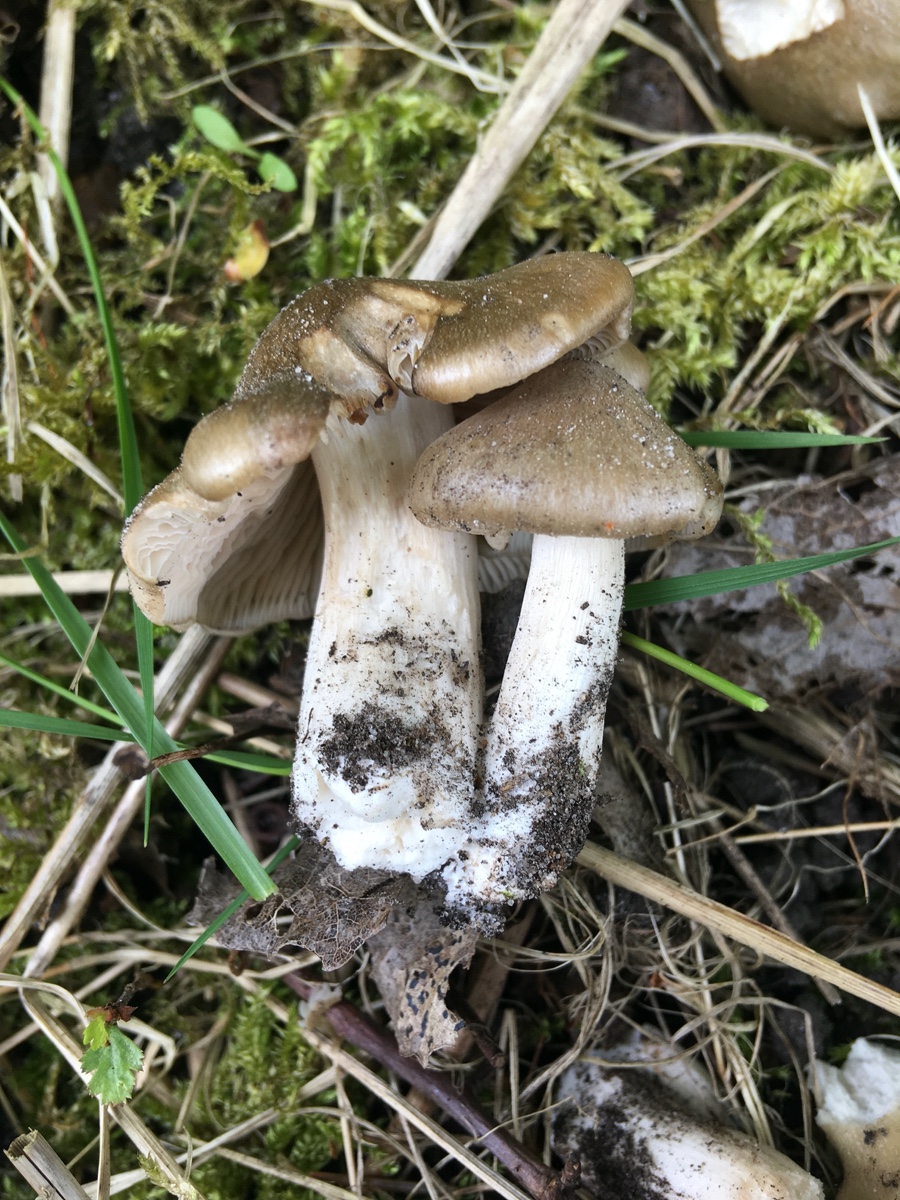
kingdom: Fungi
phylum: Basidiomycota
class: Agaricomycetes
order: Agaricales
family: Entolomataceae
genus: Entoloma
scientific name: Entoloma clypeatum
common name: flammet rødblad
